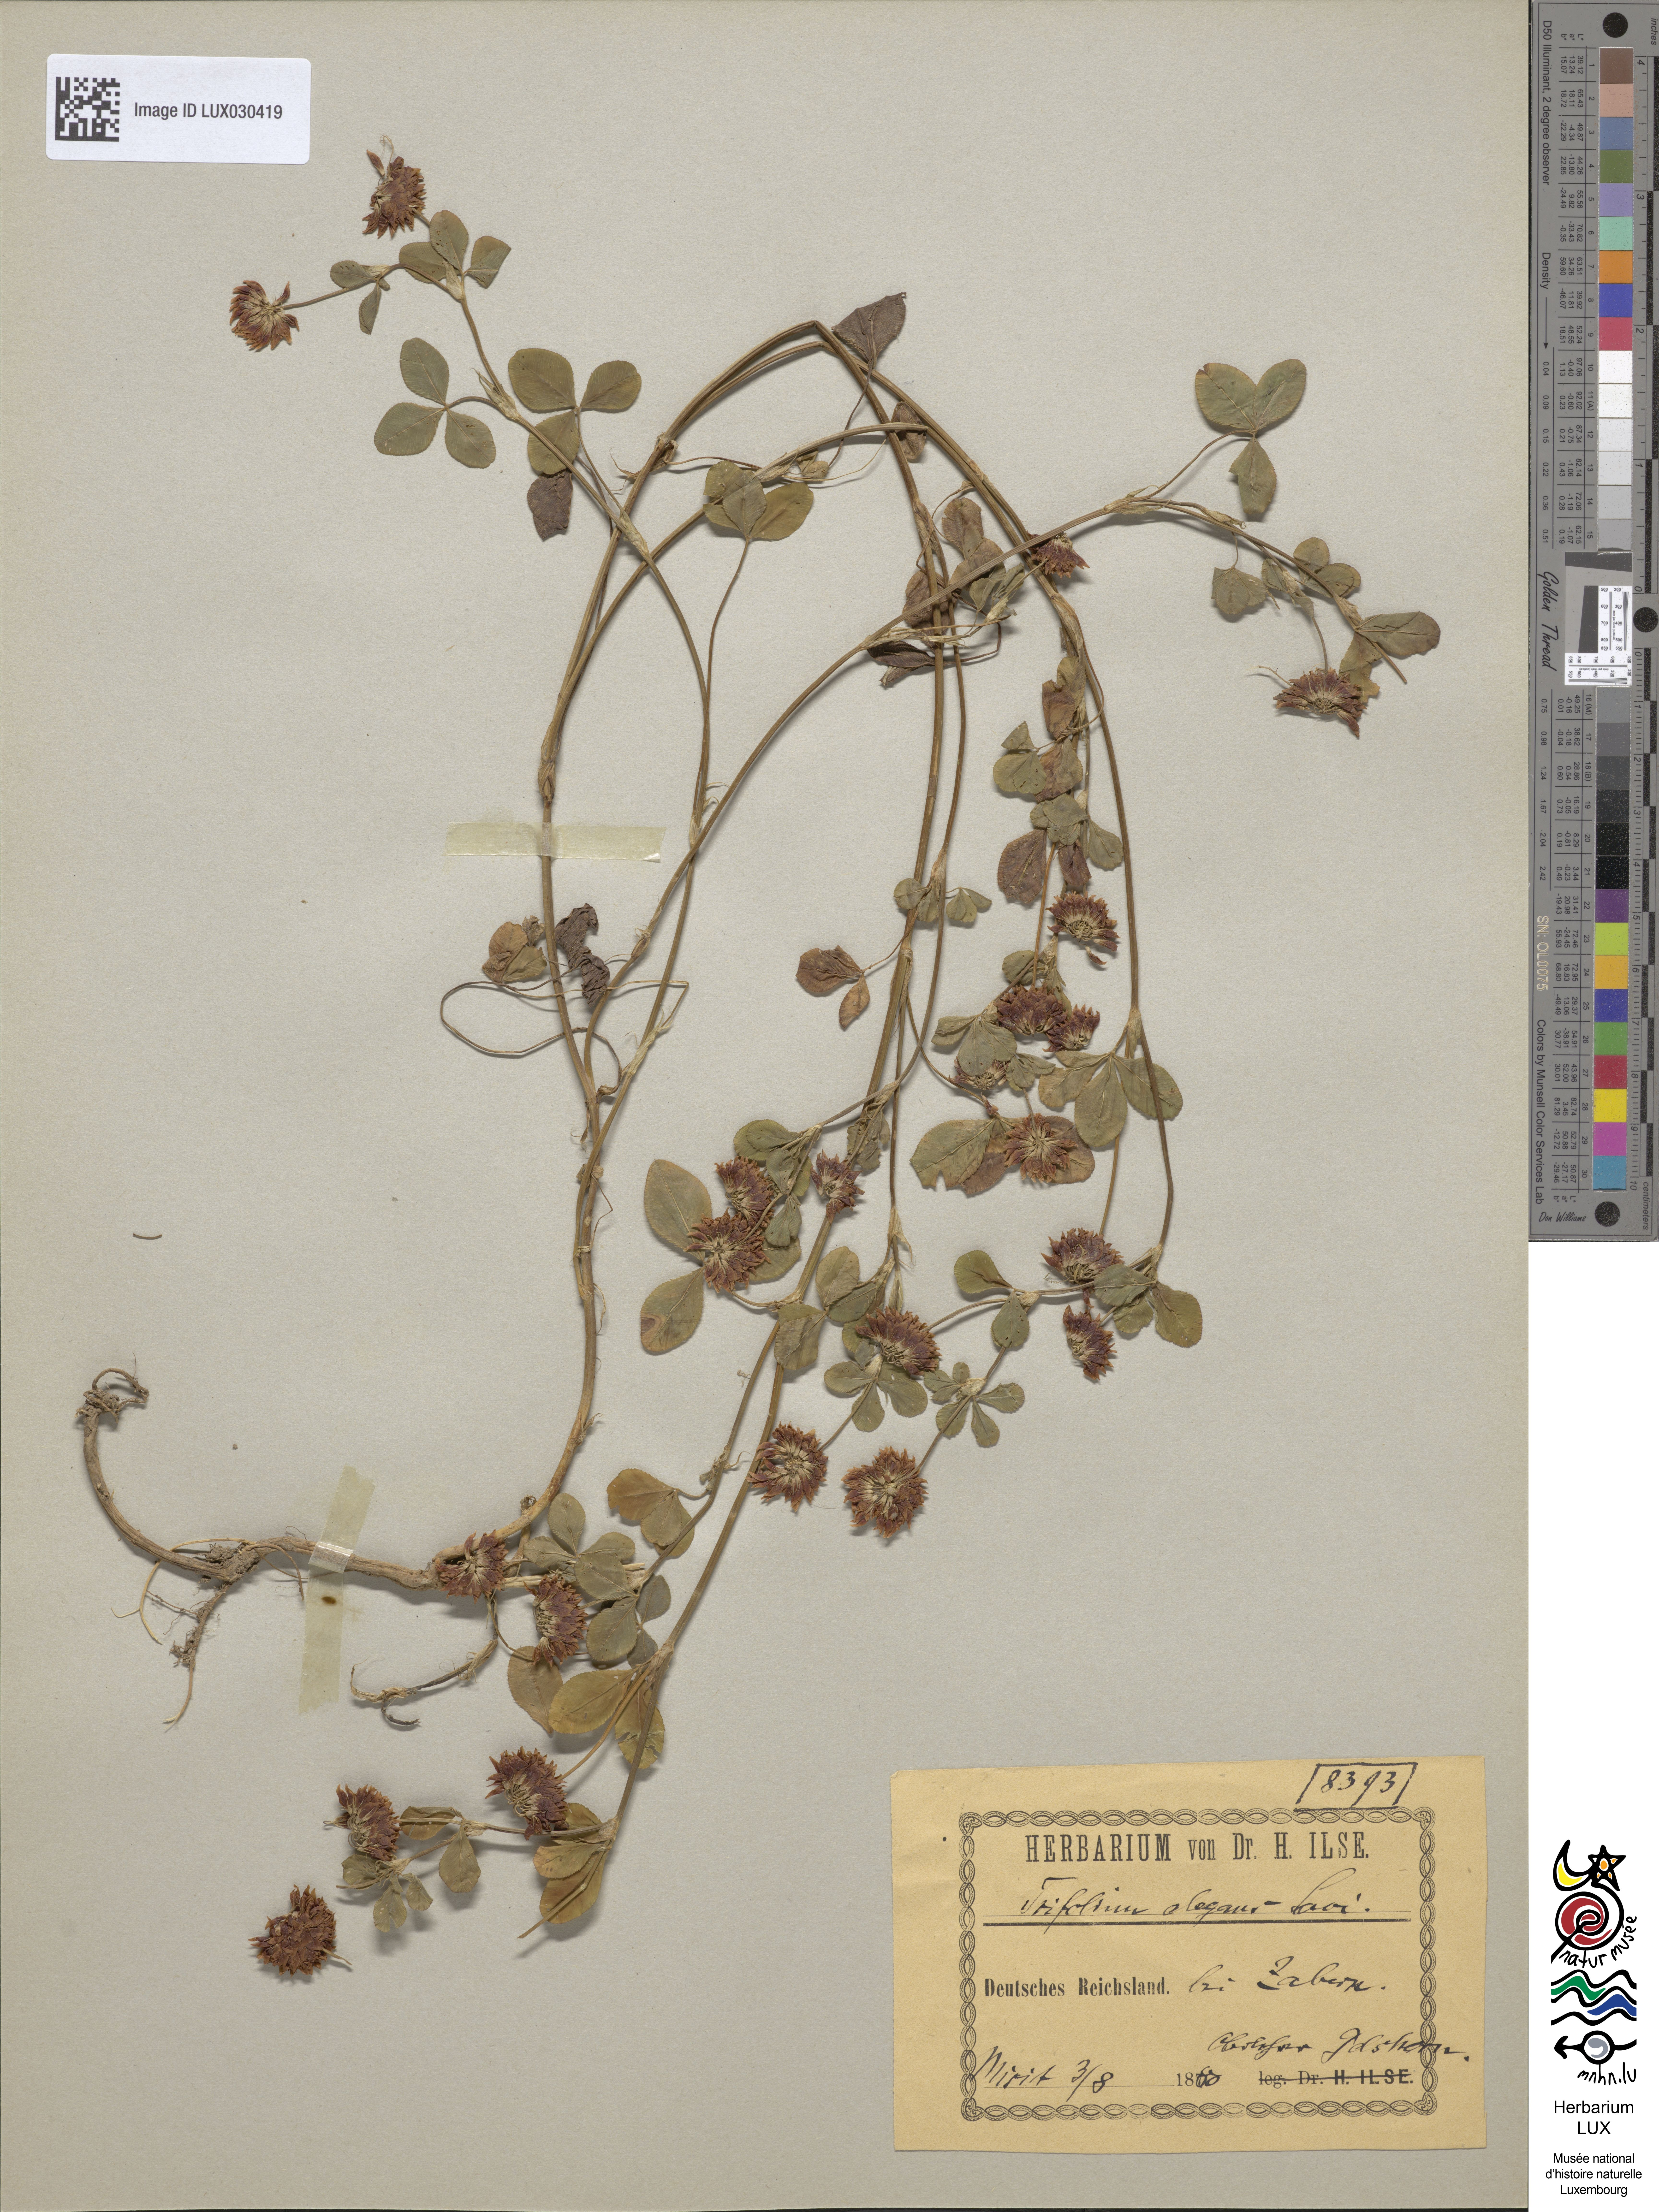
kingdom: Plantae
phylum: Tracheophyta
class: Magnoliopsida
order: Fabales
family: Fabaceae
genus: Trifolium
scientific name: Trifolium hybridum
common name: Alsike clover
